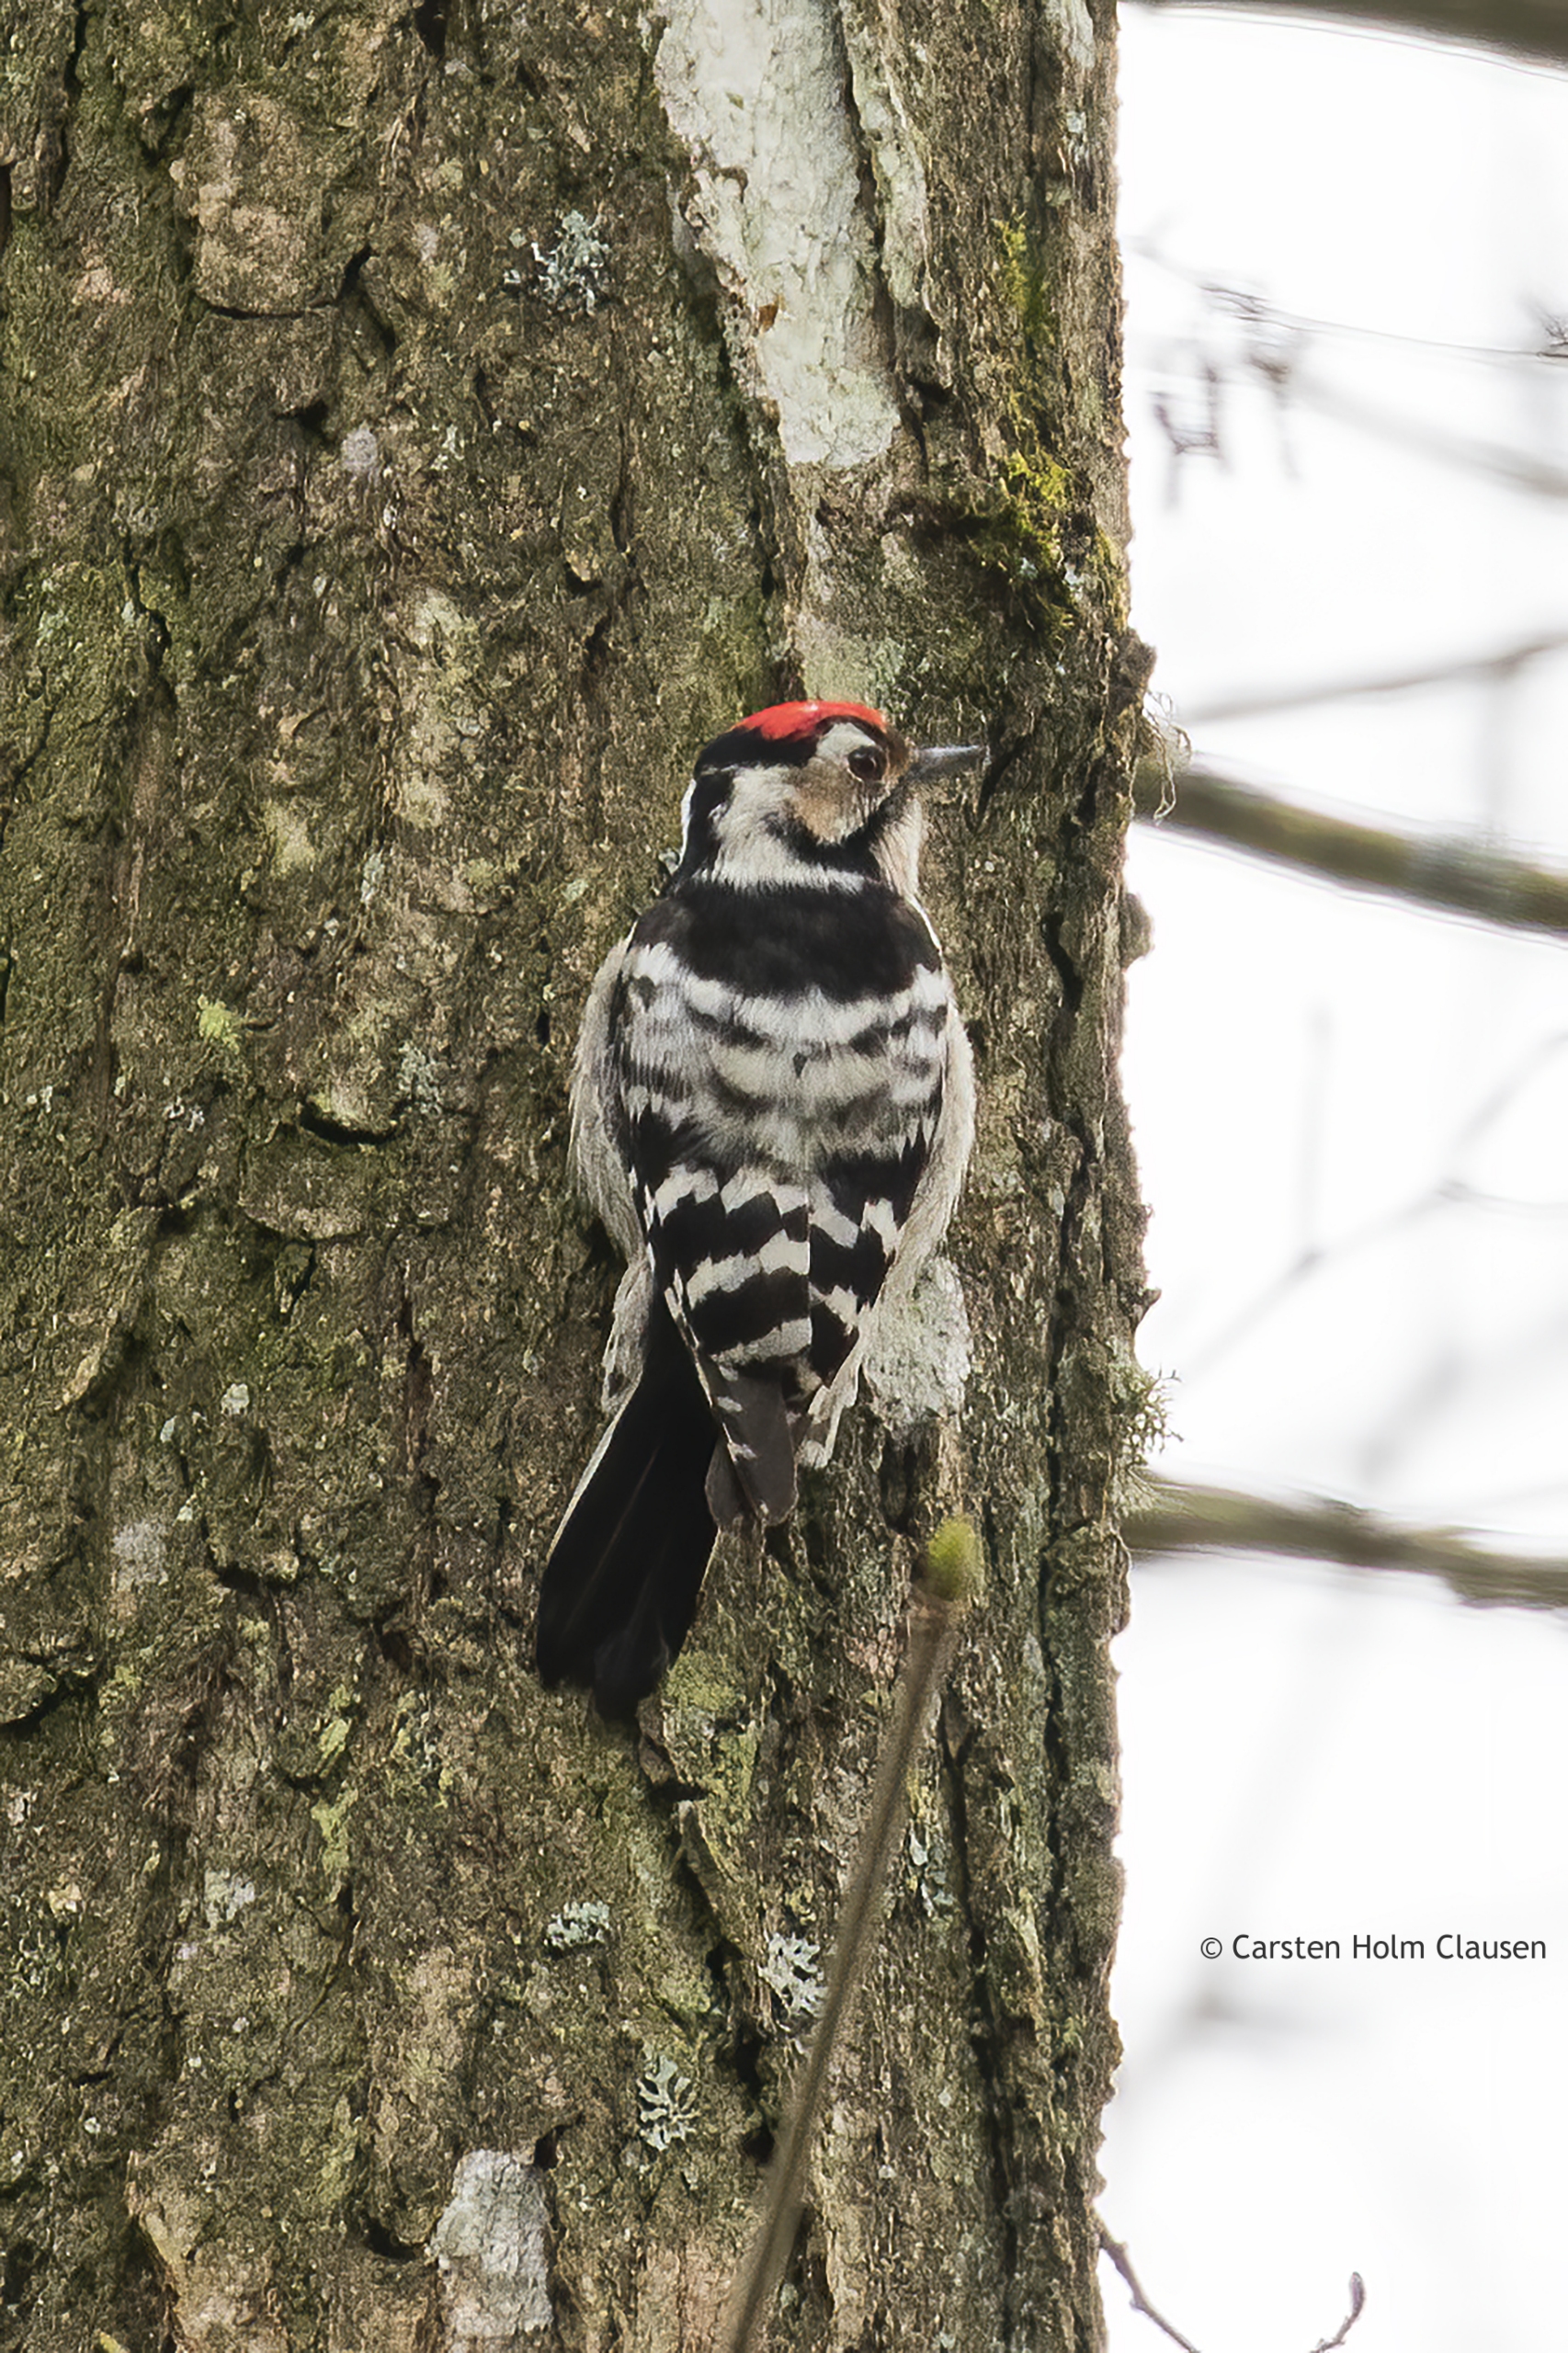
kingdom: Animalia
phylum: Chordata
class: Aves
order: Piciformes
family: Picidae
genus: Dryobates
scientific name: Dryobates minor
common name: Lille flagspætte
